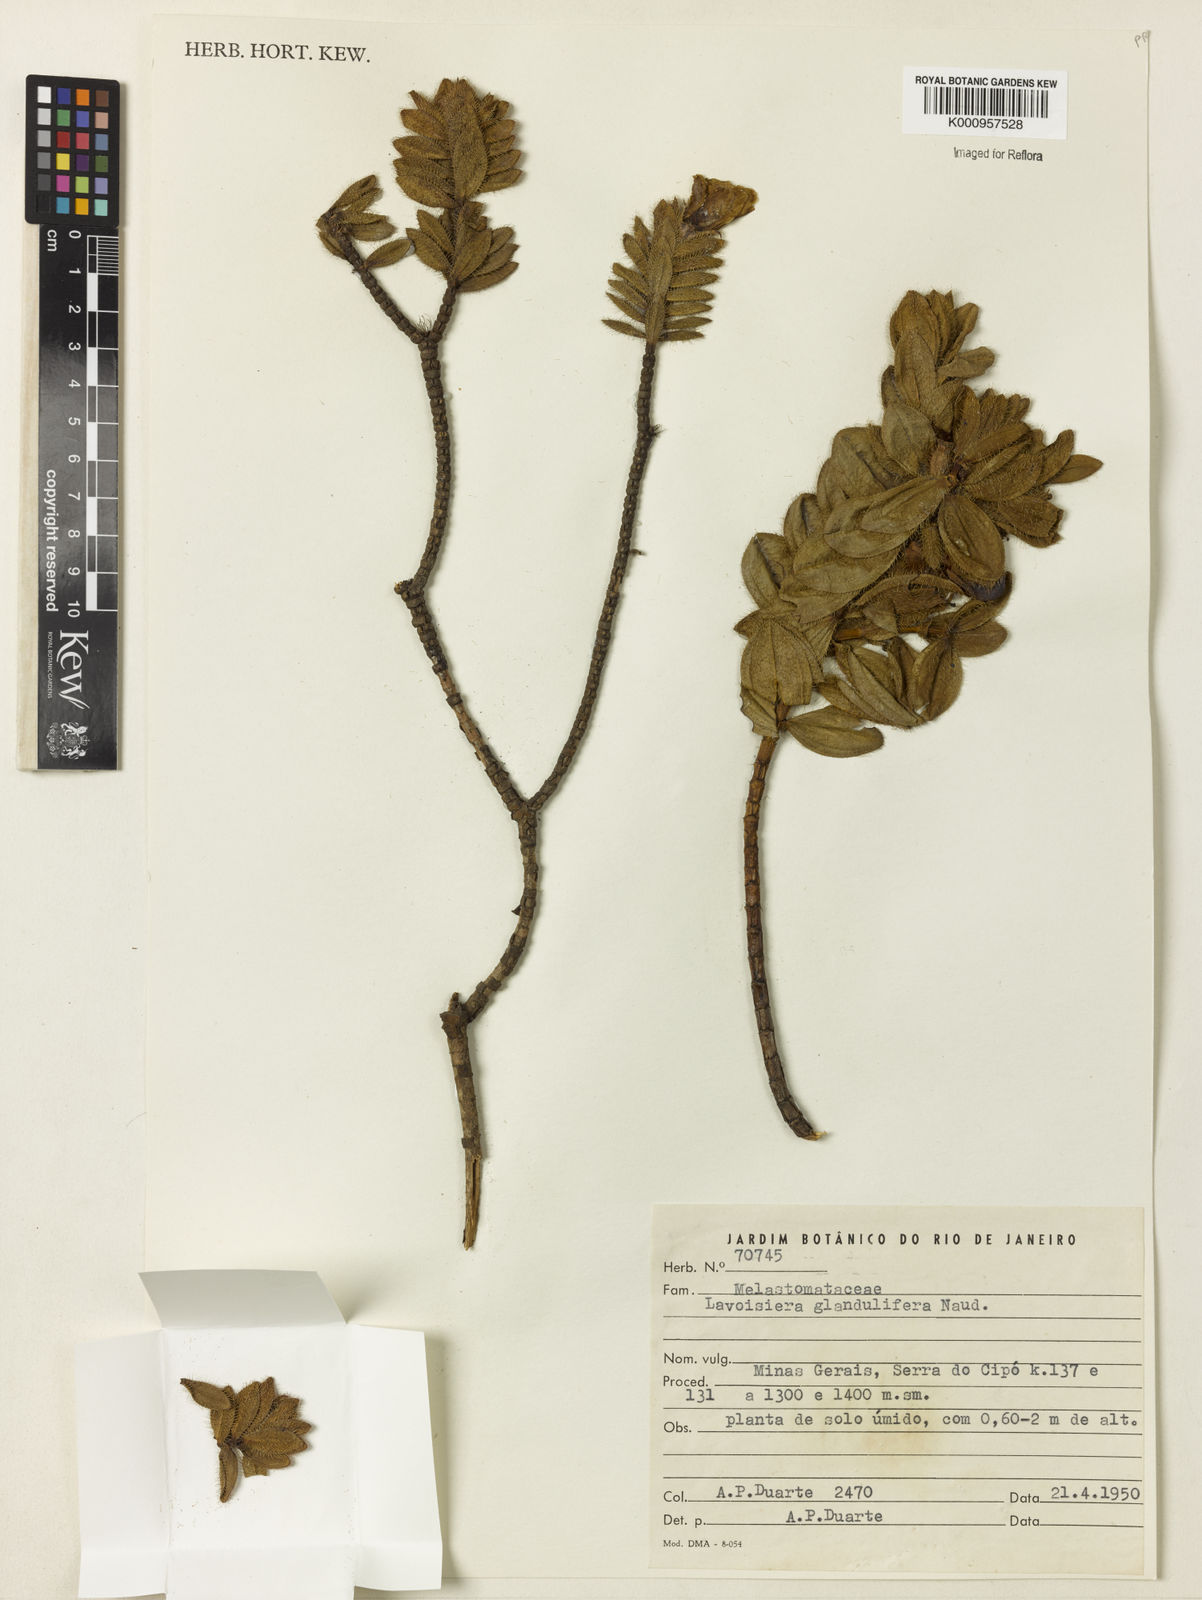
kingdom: Plantae
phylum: Tracheophyta
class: Magnoliopsida
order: Myrtales
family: Melastomataceae
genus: Microlicia
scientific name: Microlicia glandulifolia
